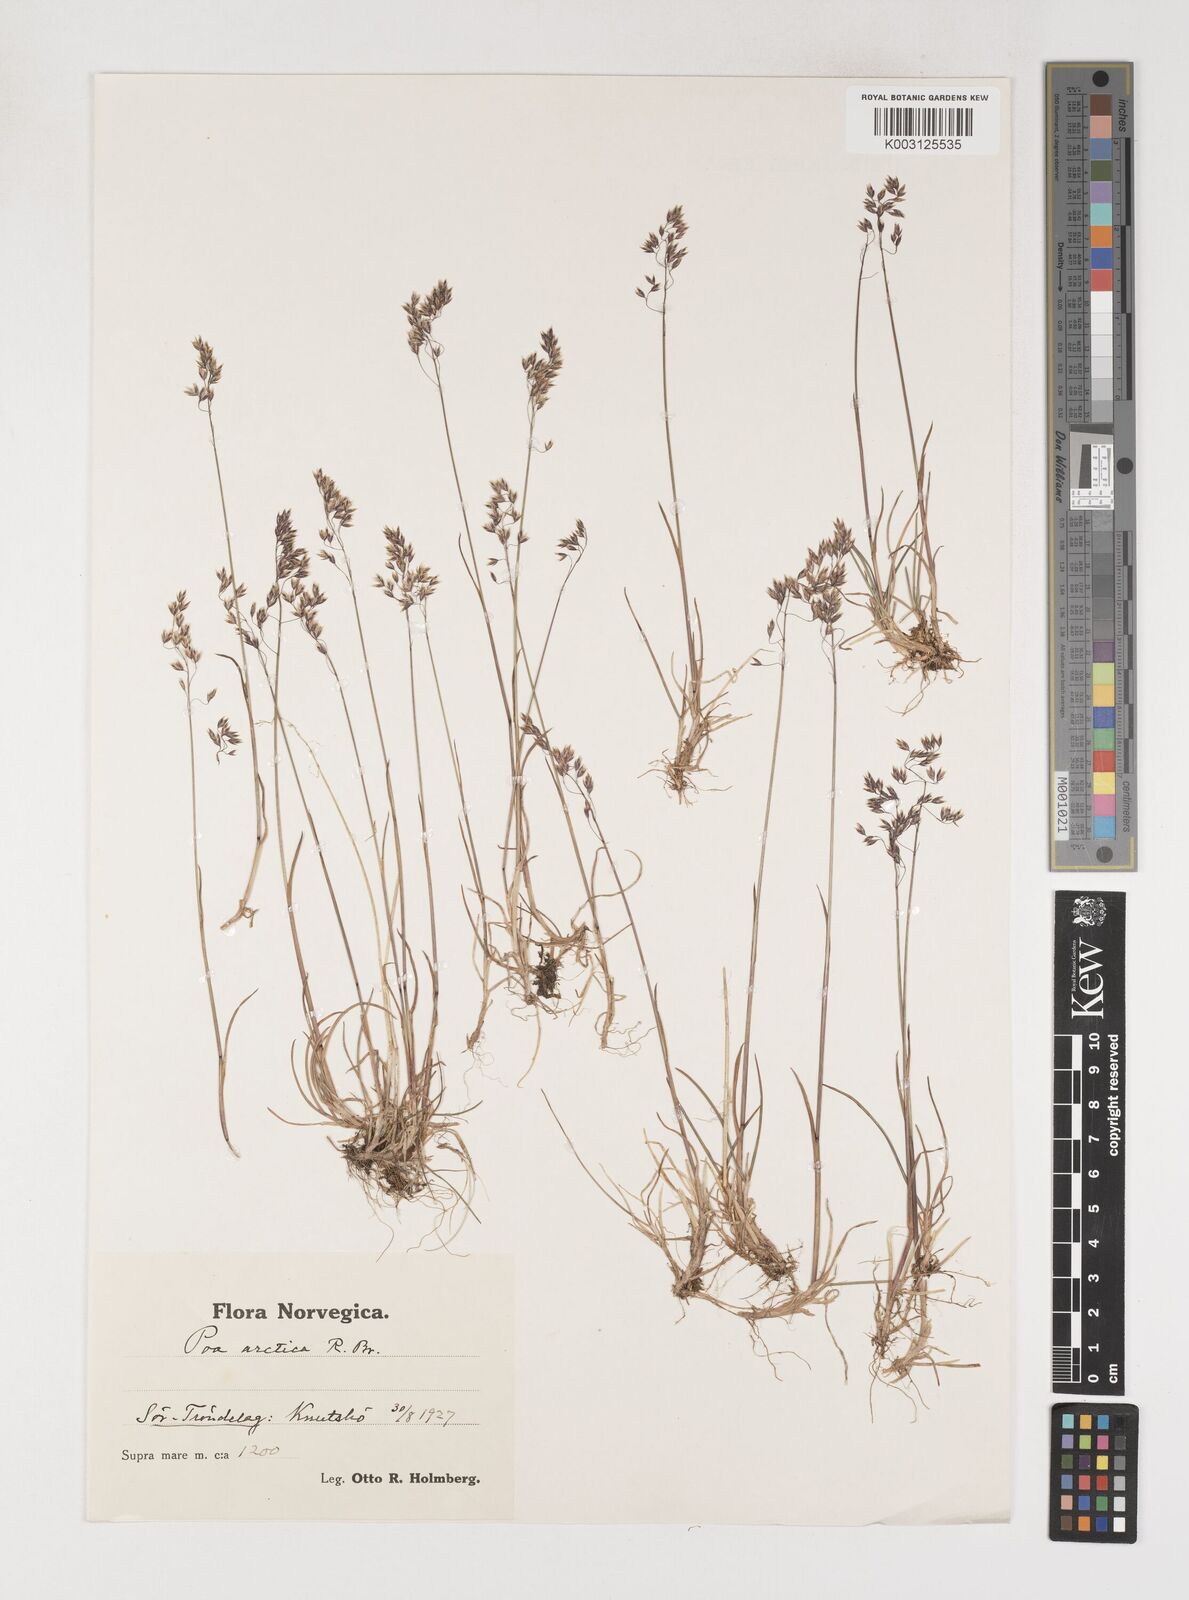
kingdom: Plantae
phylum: Tracheophyta
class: Liliopsida
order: Poales
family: Poaceae
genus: Poa
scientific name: Poa arctica
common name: Arctic bluegrass
